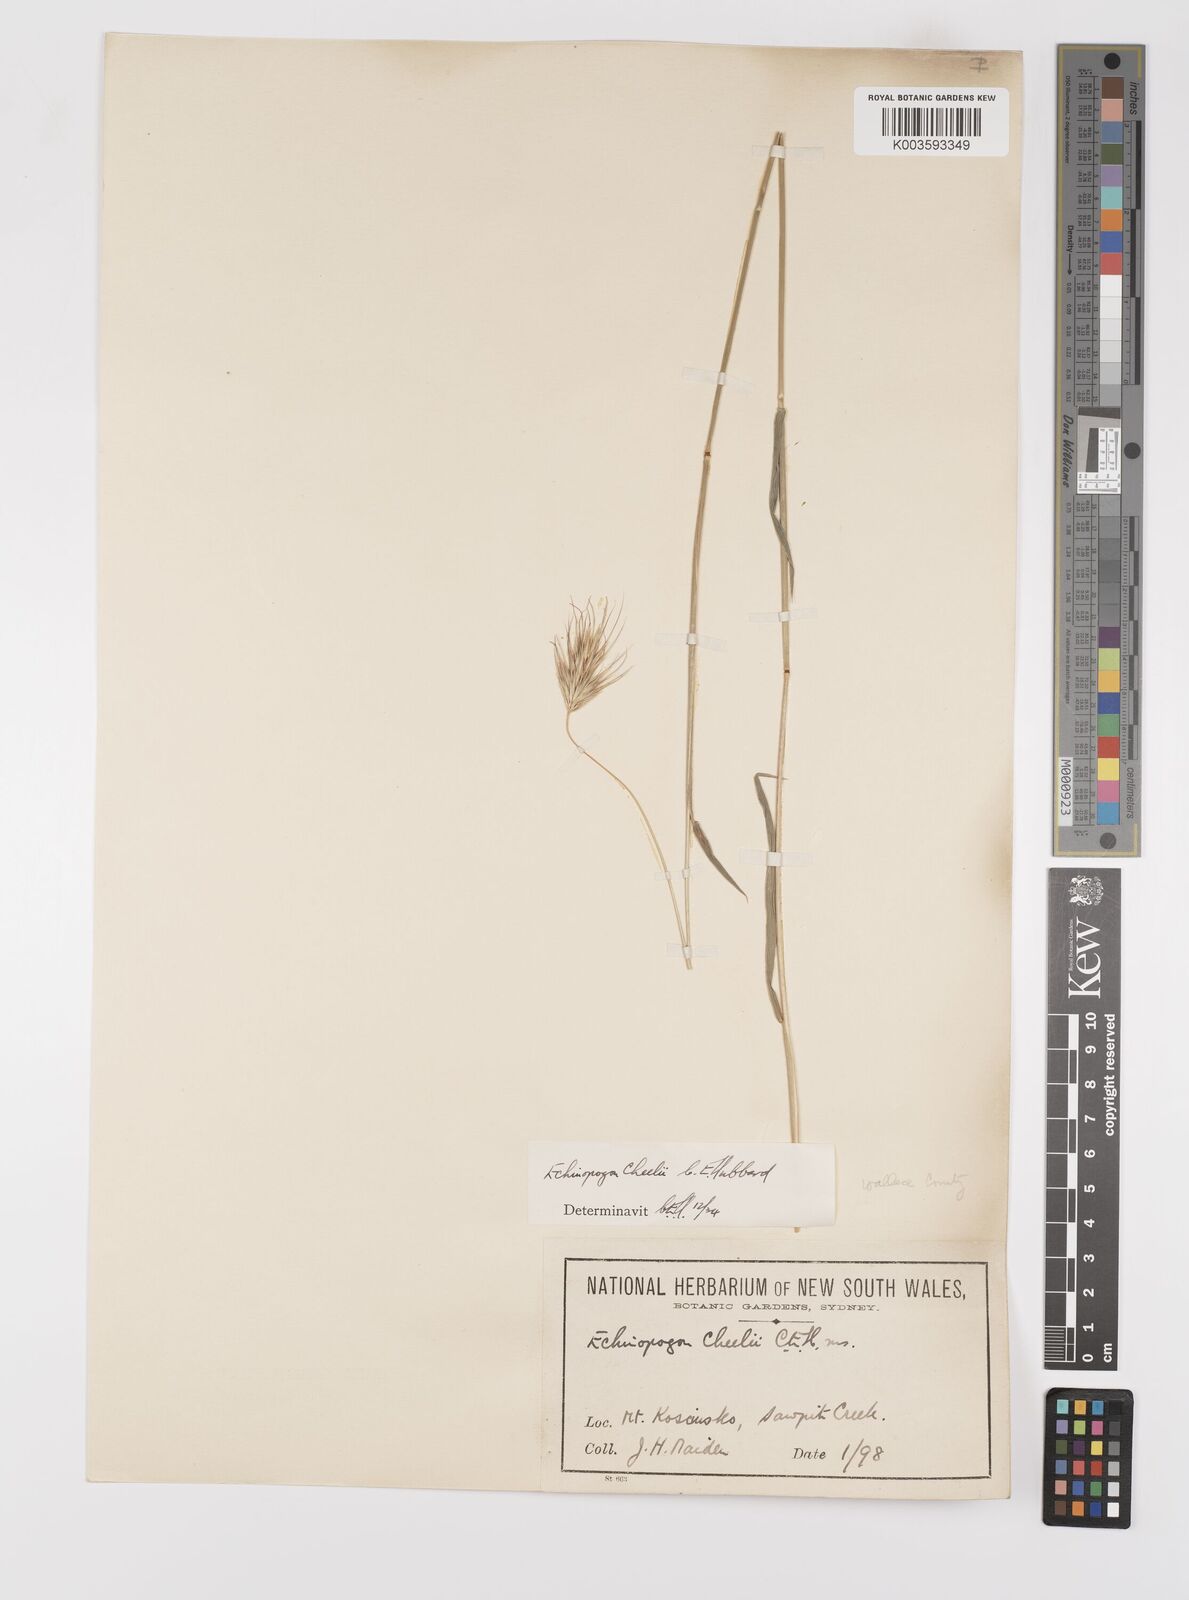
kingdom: Plantae
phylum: Tracheophyta
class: Liliopsida
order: Poales
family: Poaceae
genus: Echinopogon
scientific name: Echinopogon cheelii
